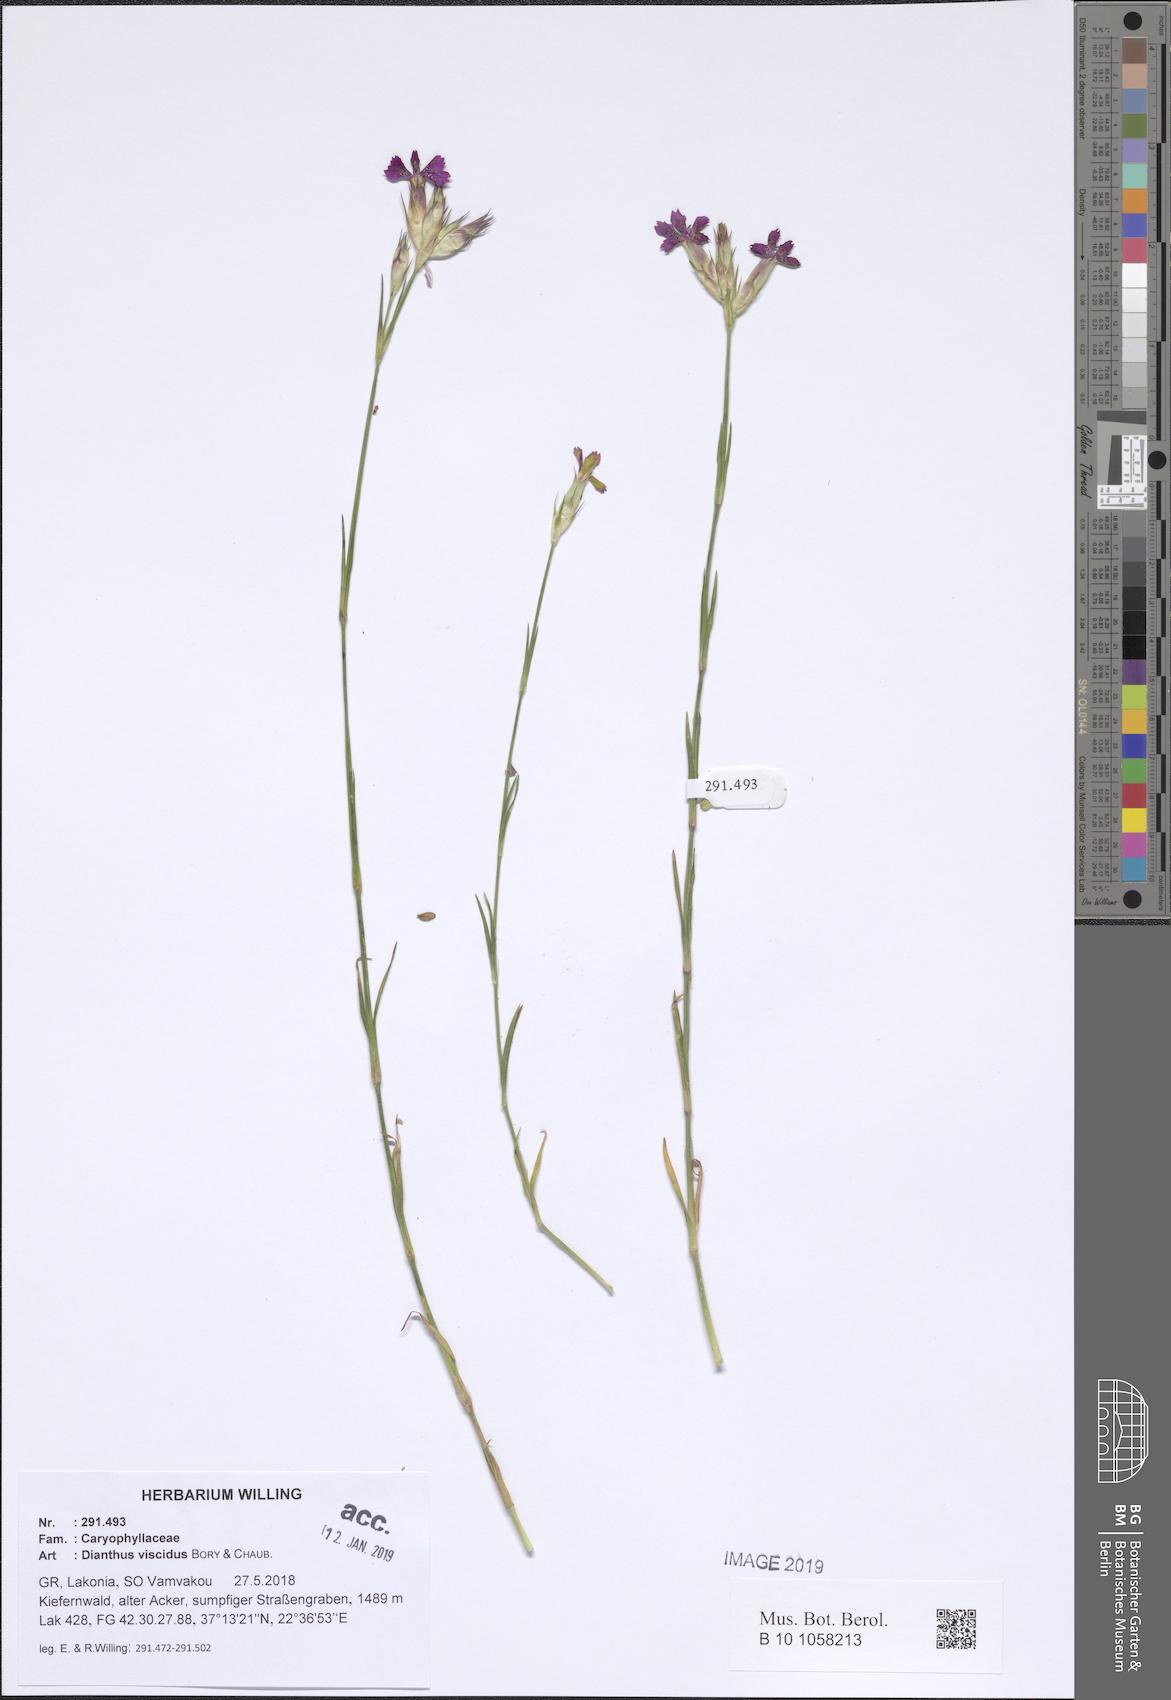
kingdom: Plantae
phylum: Tracheophyta
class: Magnoliopsida
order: Caryophyllales
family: Caryophyllaceae
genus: Dianthus
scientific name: Dianthus viscidus
